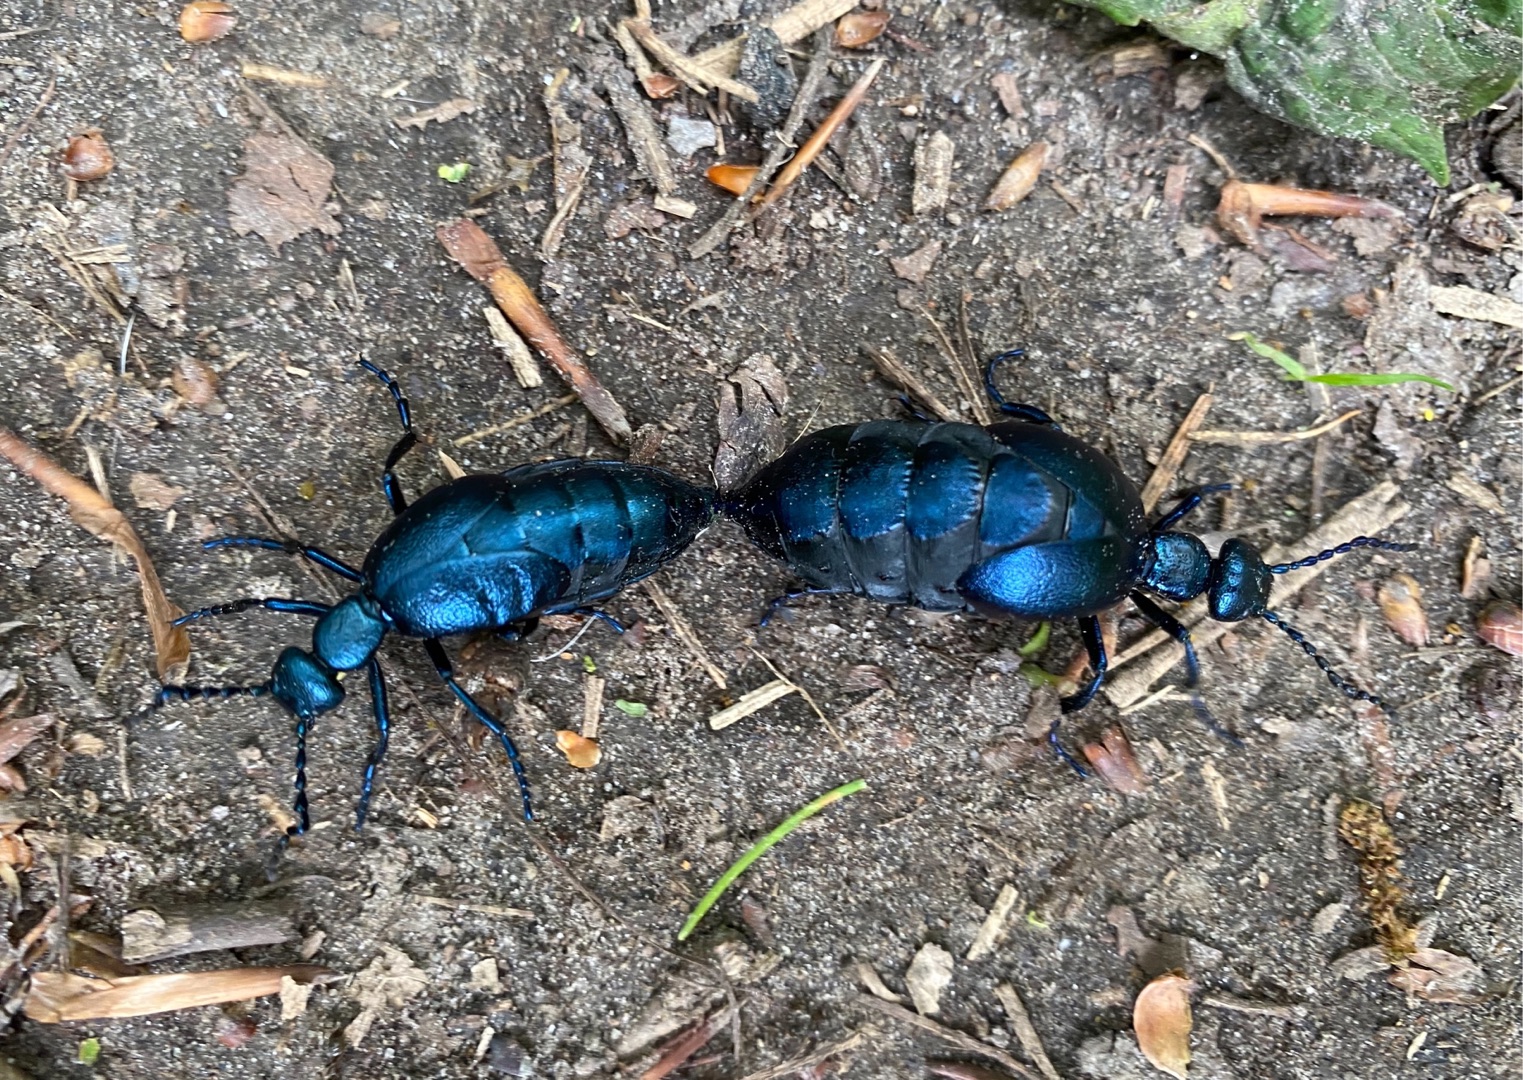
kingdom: Animalia
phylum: Arthropoda
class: Insecta
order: Coleoptera
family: Meloidae
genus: Meloe
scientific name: Meloe violaceus
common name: Blå oliebille
